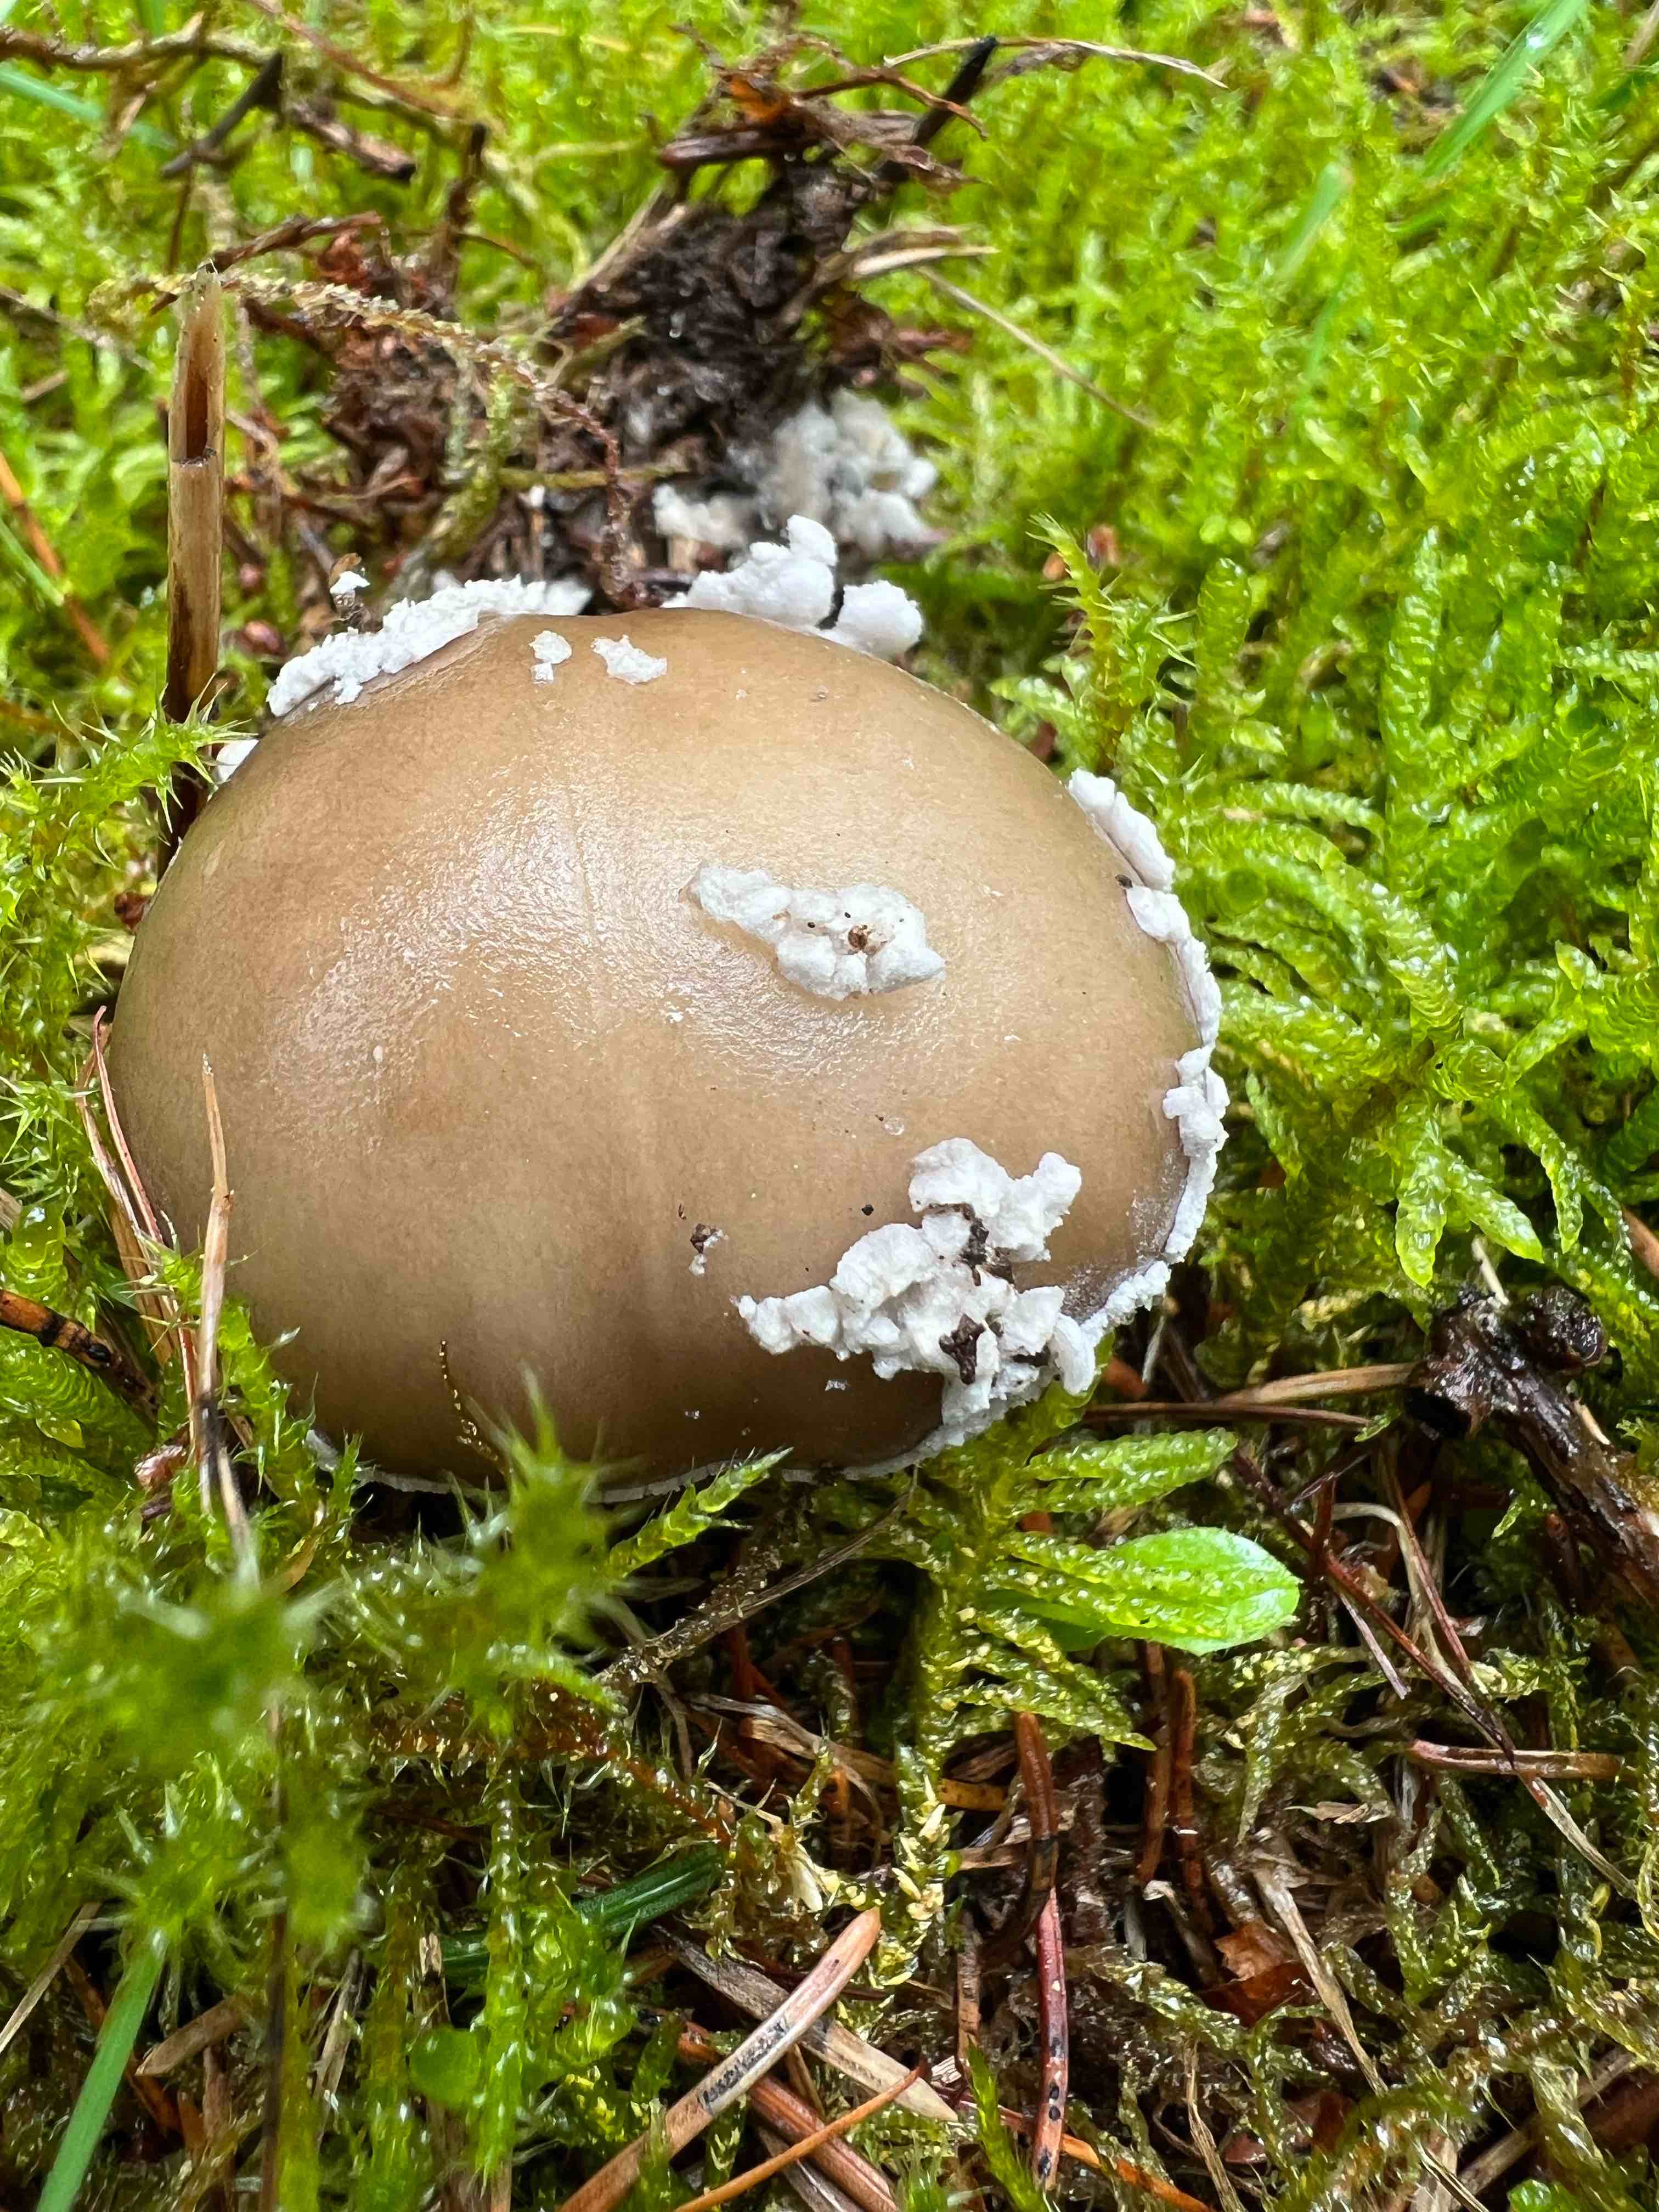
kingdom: Fungi
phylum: Basidiomycota
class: Agaricomycetes
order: Agaricales
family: Amanitaceae
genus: Amanita
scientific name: Amanita
